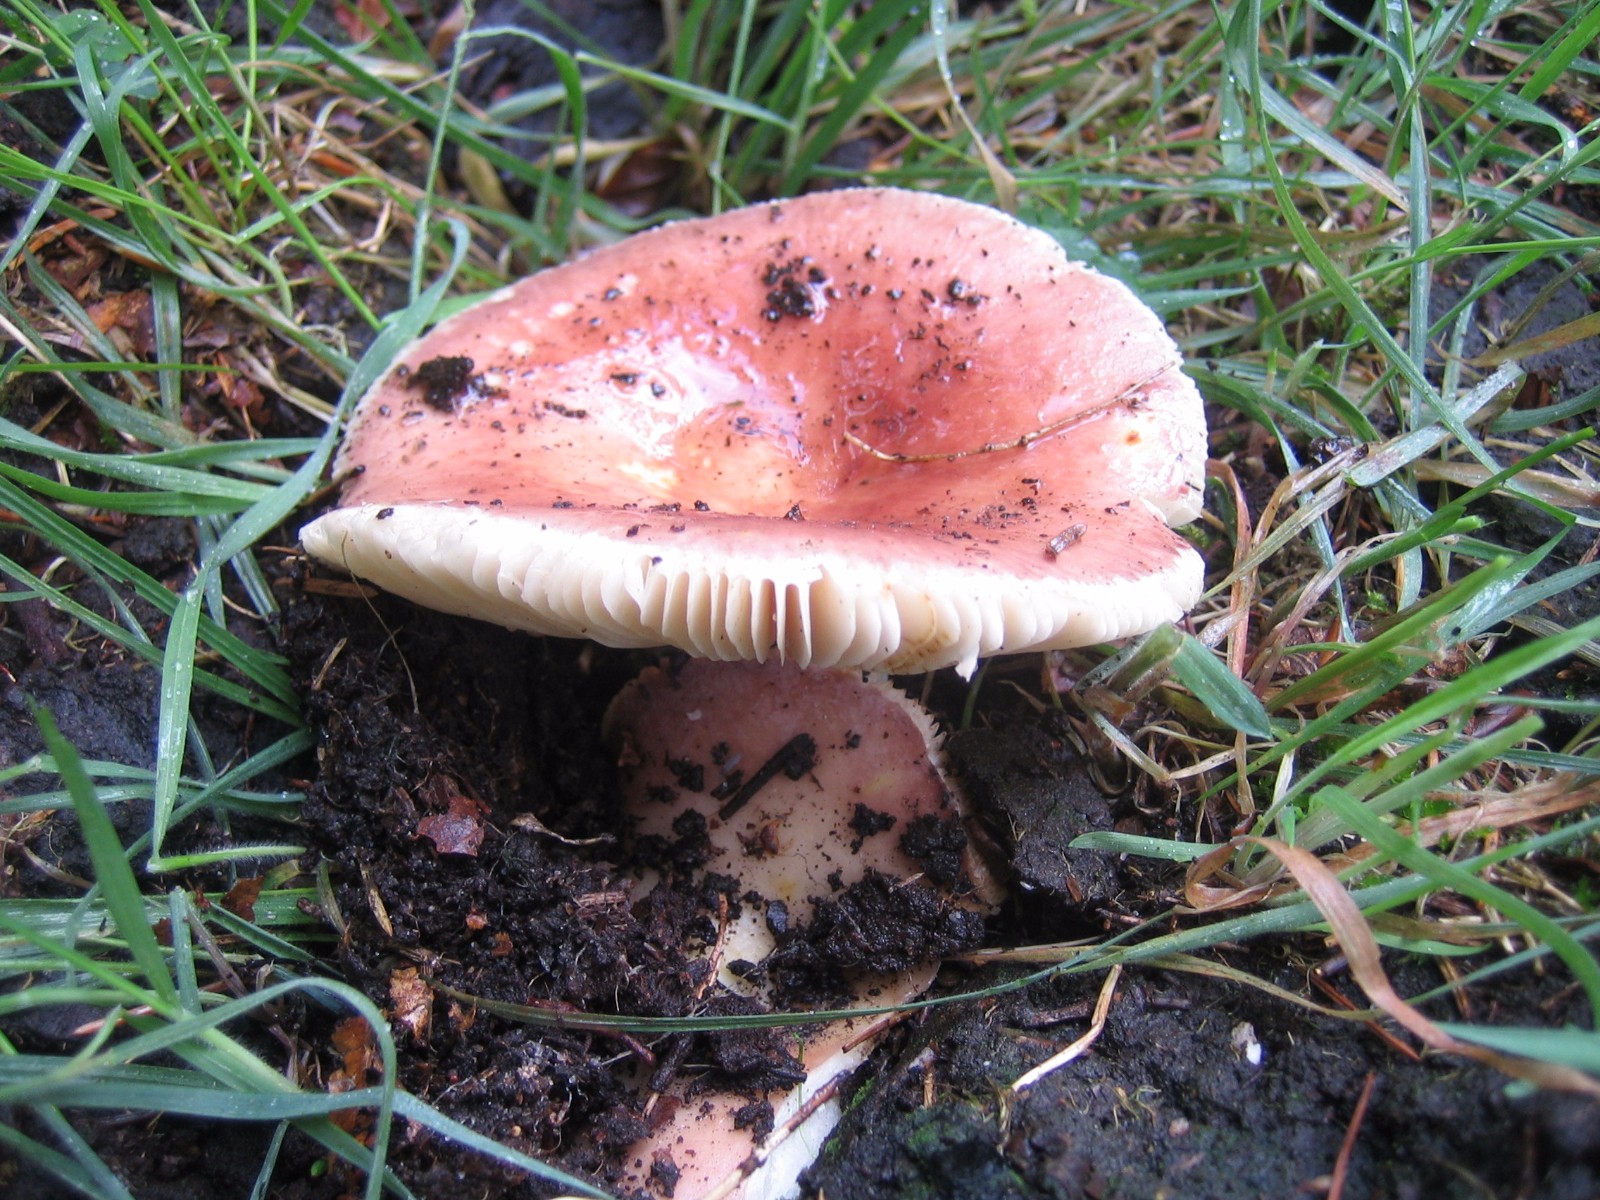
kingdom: Fungi
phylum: Basidiomycota
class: Agaricomycetes
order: Russulales
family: Russulaceae
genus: Russula
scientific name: Russula vesca
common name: spiselig skørhat
